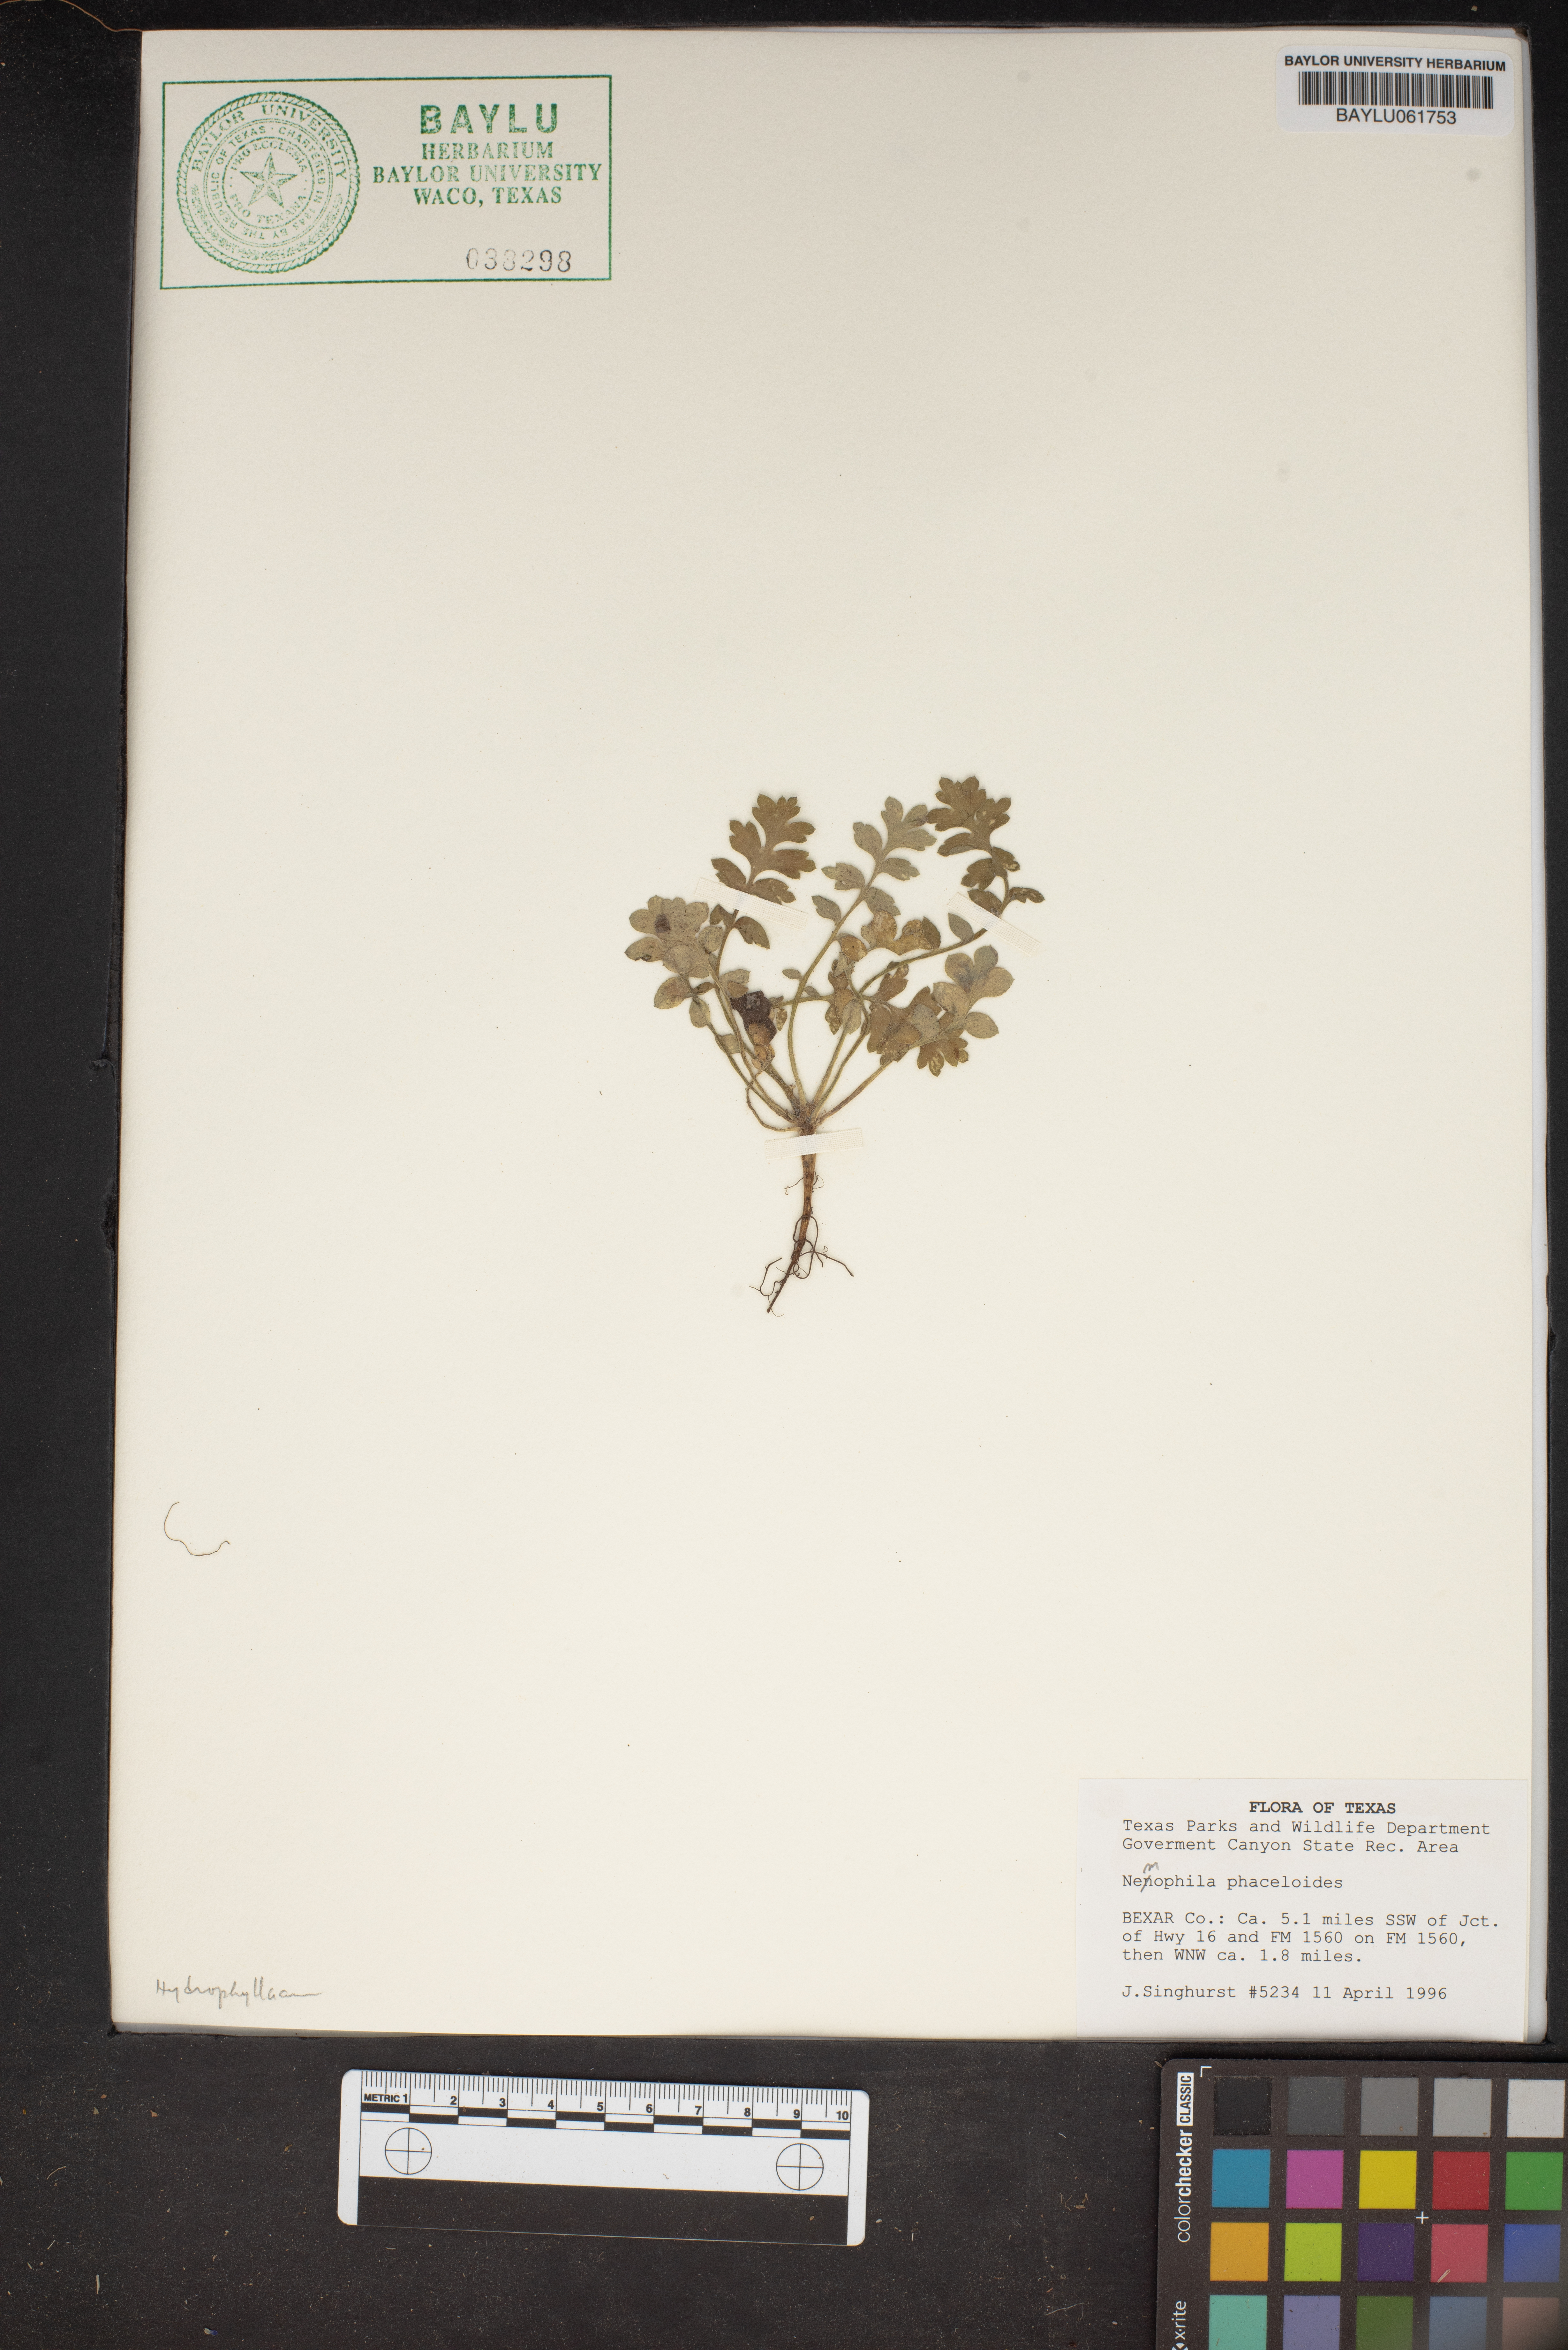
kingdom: Plantae
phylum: Tracheophyta
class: Magnoliopsida
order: Boraginales
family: Hydrophyllaceae
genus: Nemophila
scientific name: Nemophila phacelioides
